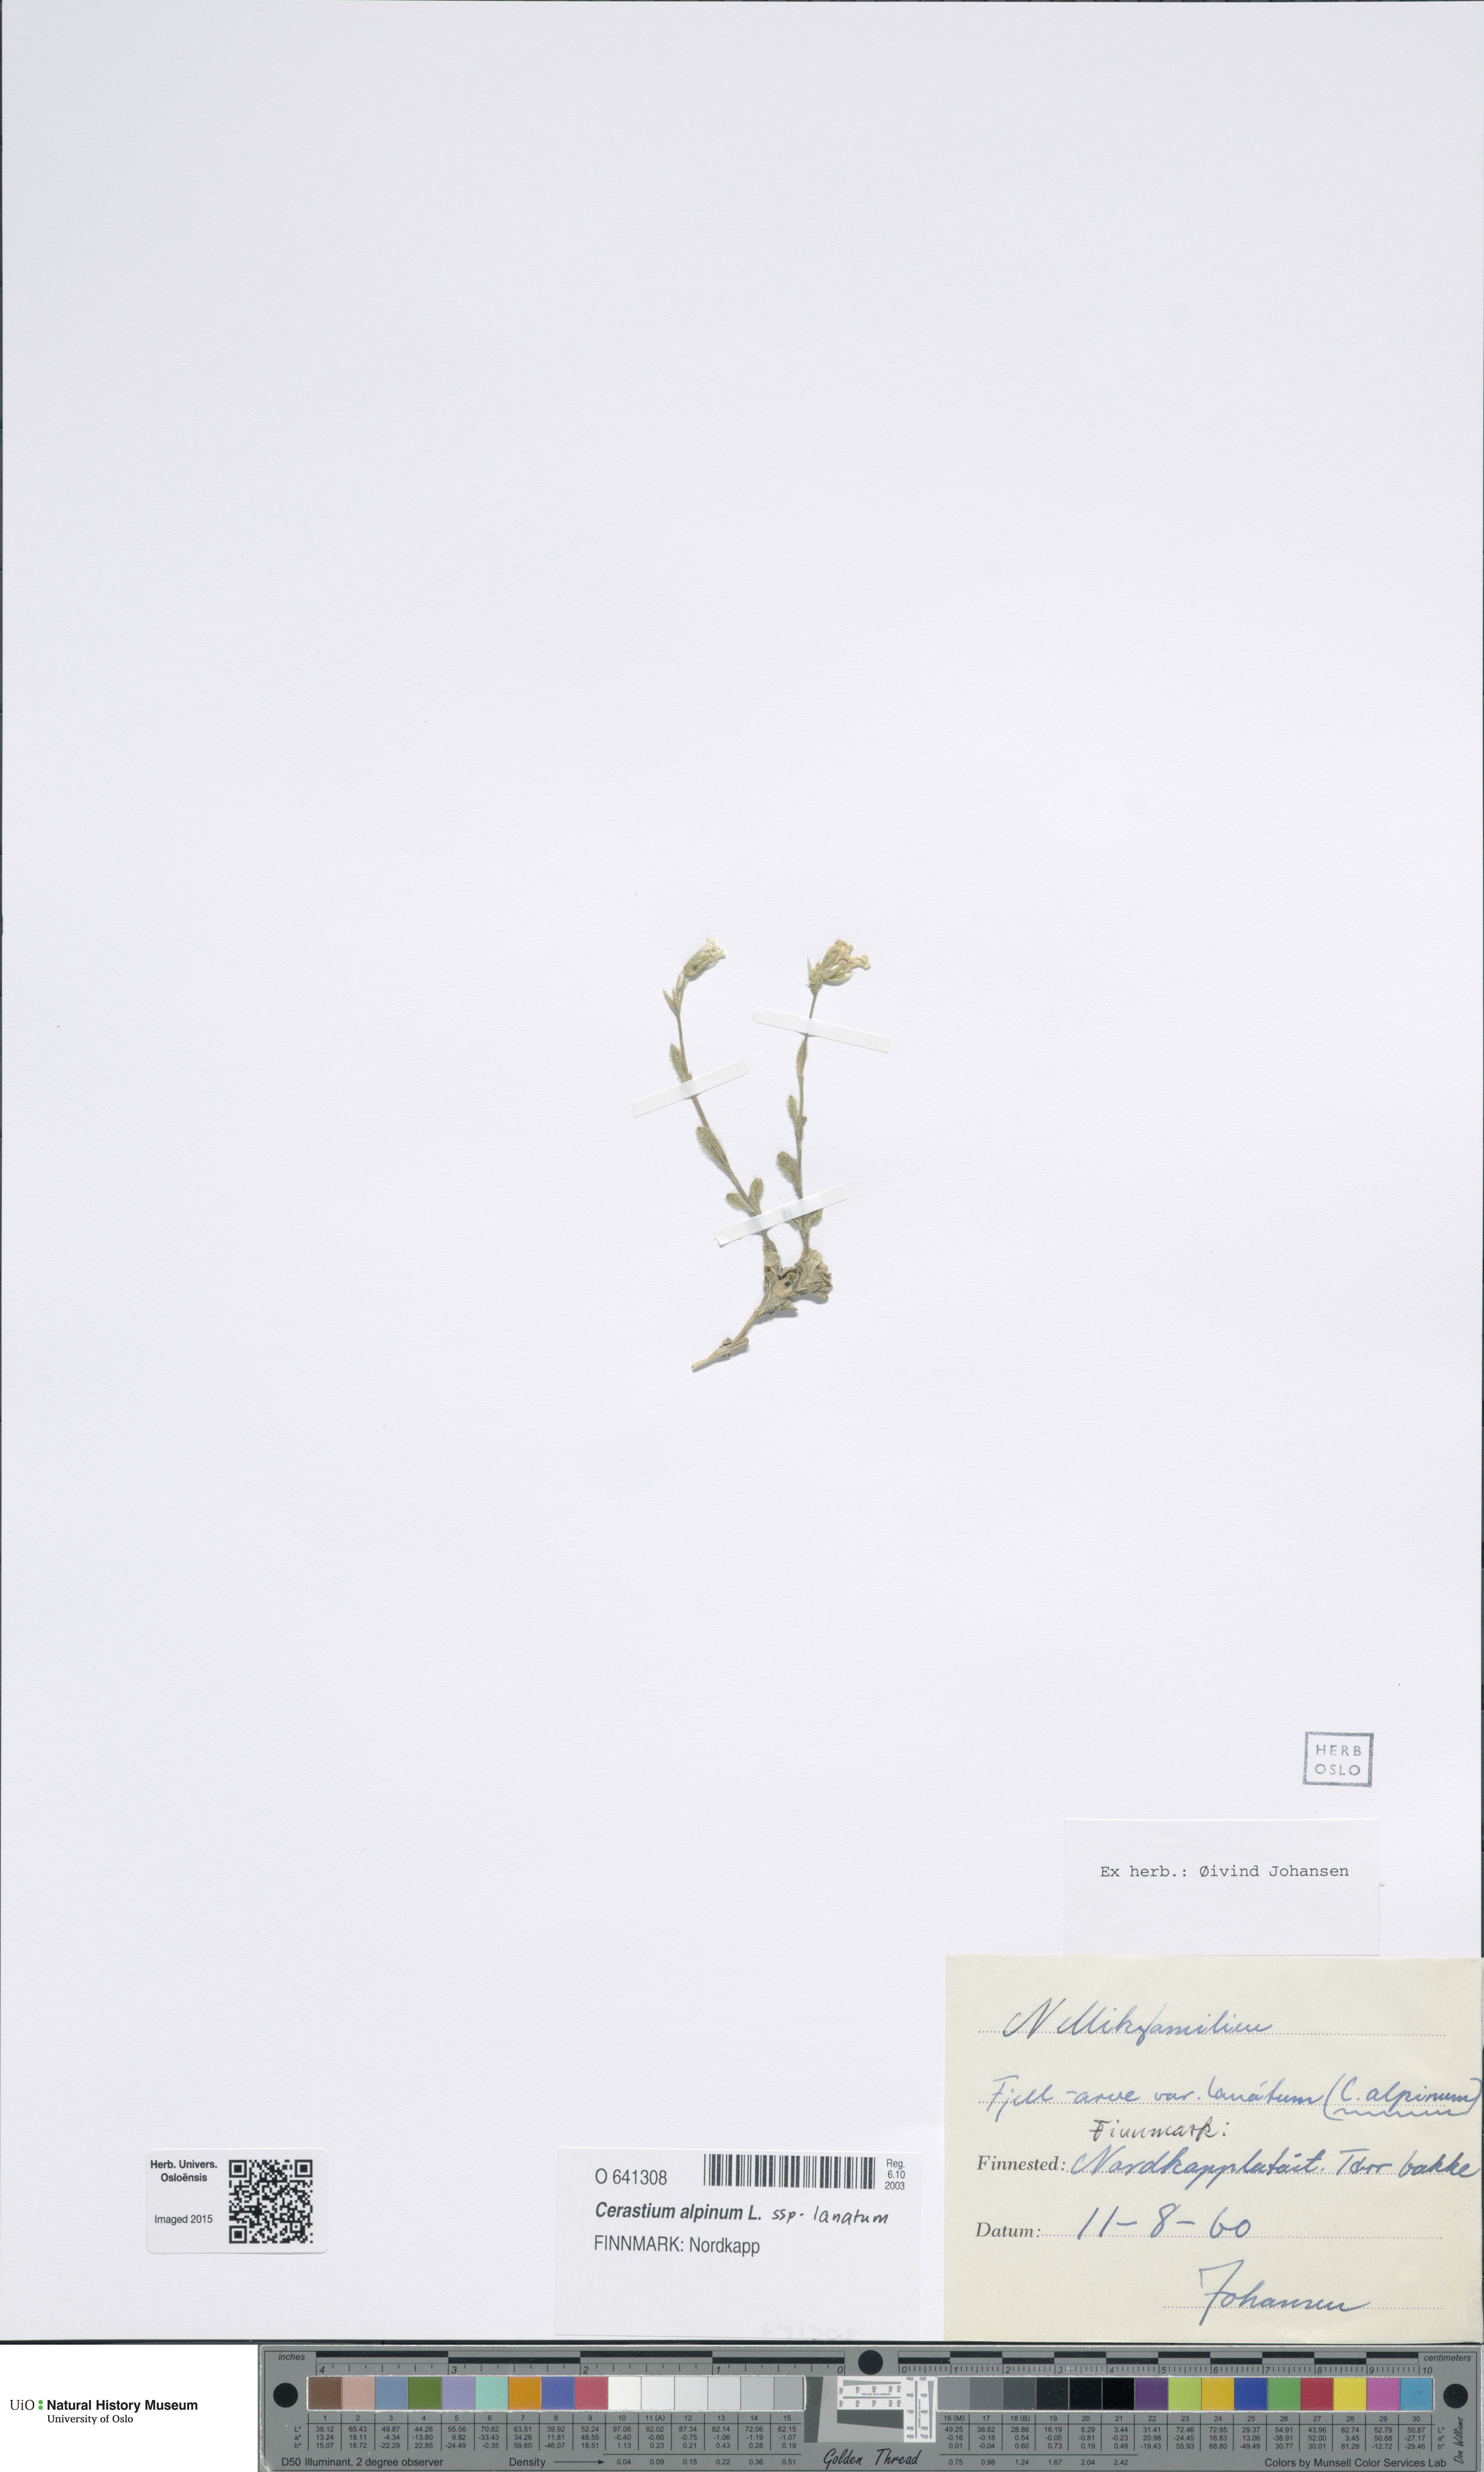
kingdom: Plantae
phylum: Tracheophyta
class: Magnoliopsida
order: Caryophyllales
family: Caryophyllaceae
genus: Cerastium
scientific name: Cerastium alpinum
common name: Alpine mouse-ear
